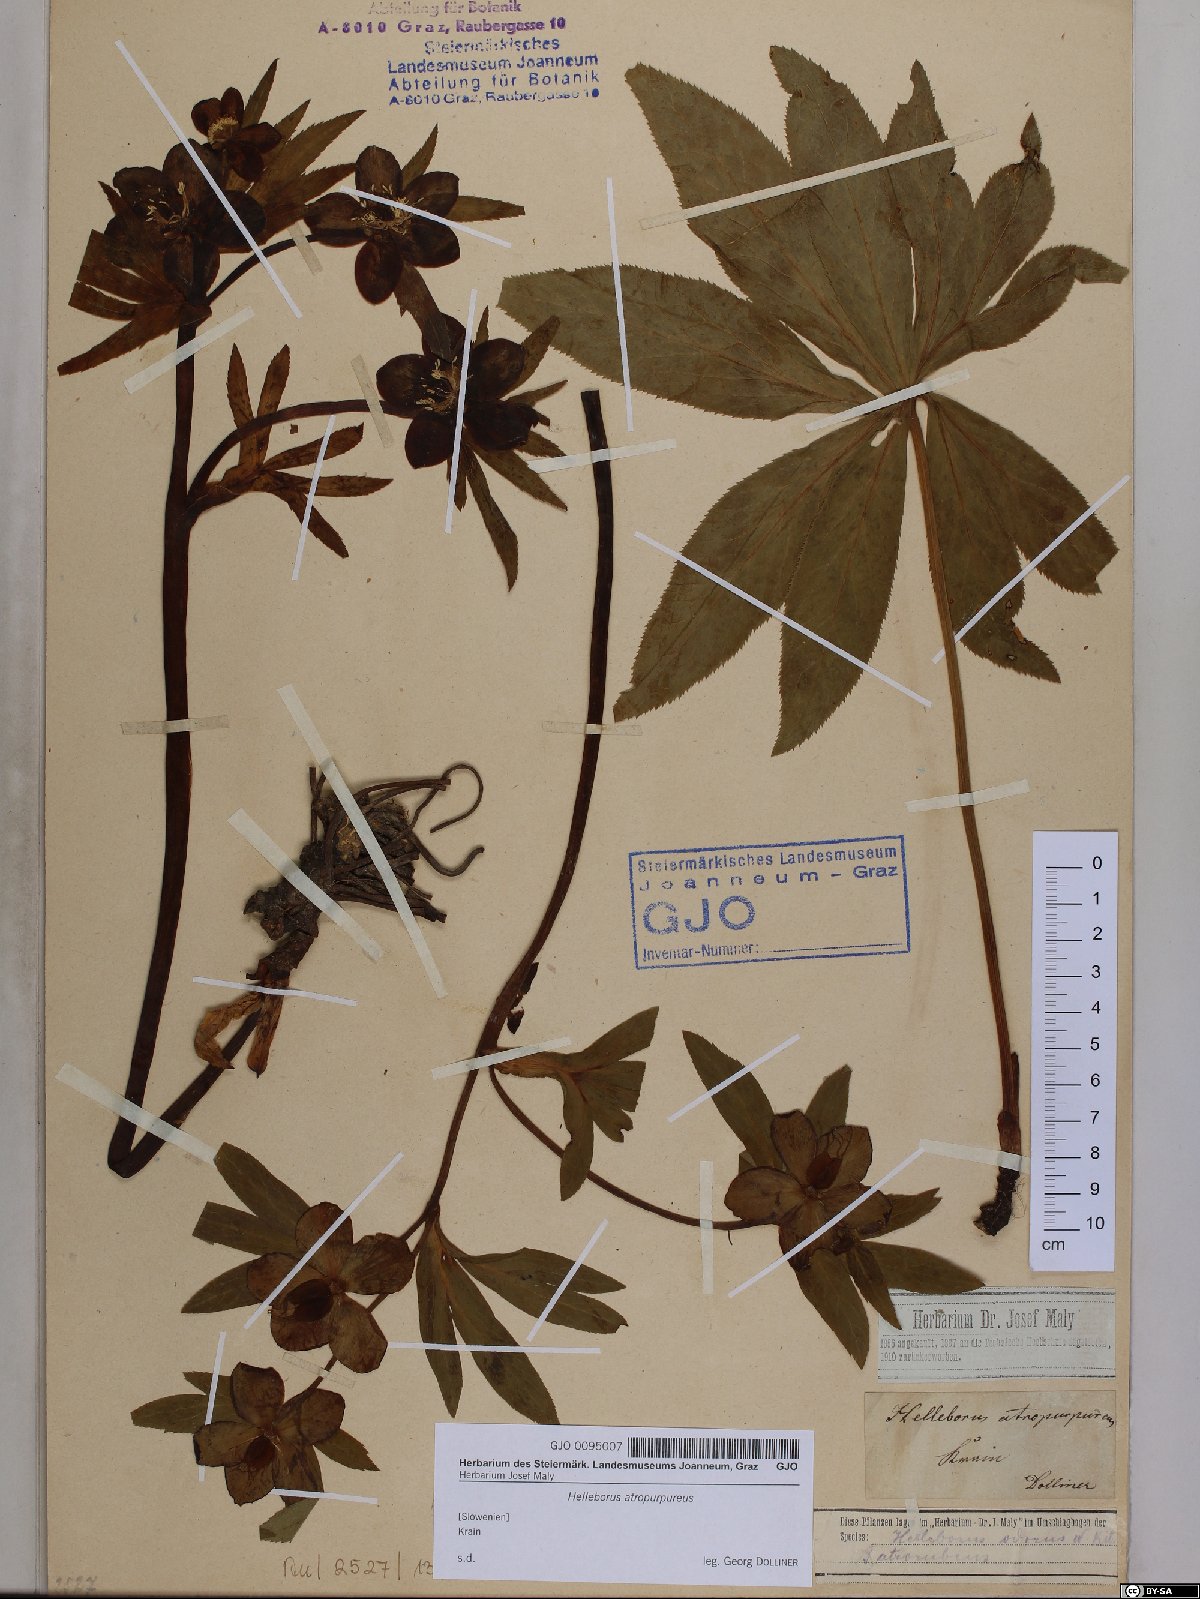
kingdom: Plantae
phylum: Tracheophyta
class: Magnoliopsida
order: Ranunculales
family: Ranunculaceae
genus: Helleborus
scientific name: Helleborus dumetorum
